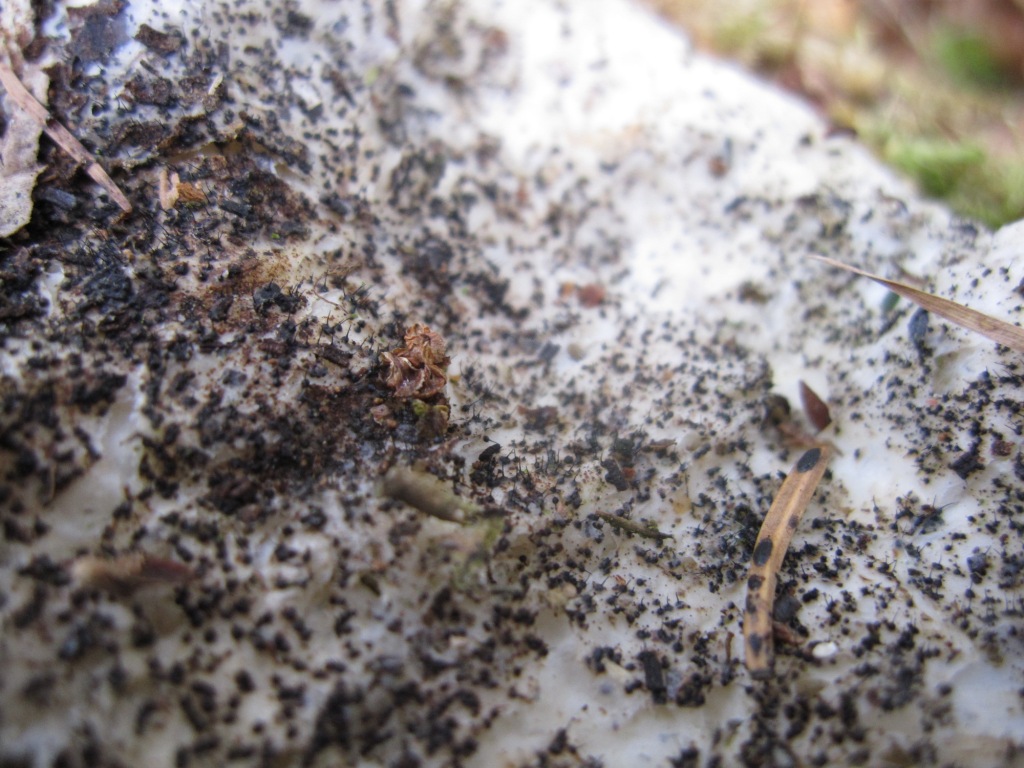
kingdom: Fungi
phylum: Ascomycota
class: Sordariomycetes
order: Ophiostomatales
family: Ophiostomataceae
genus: Sporothrix
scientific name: Sporothrix polyporicola
